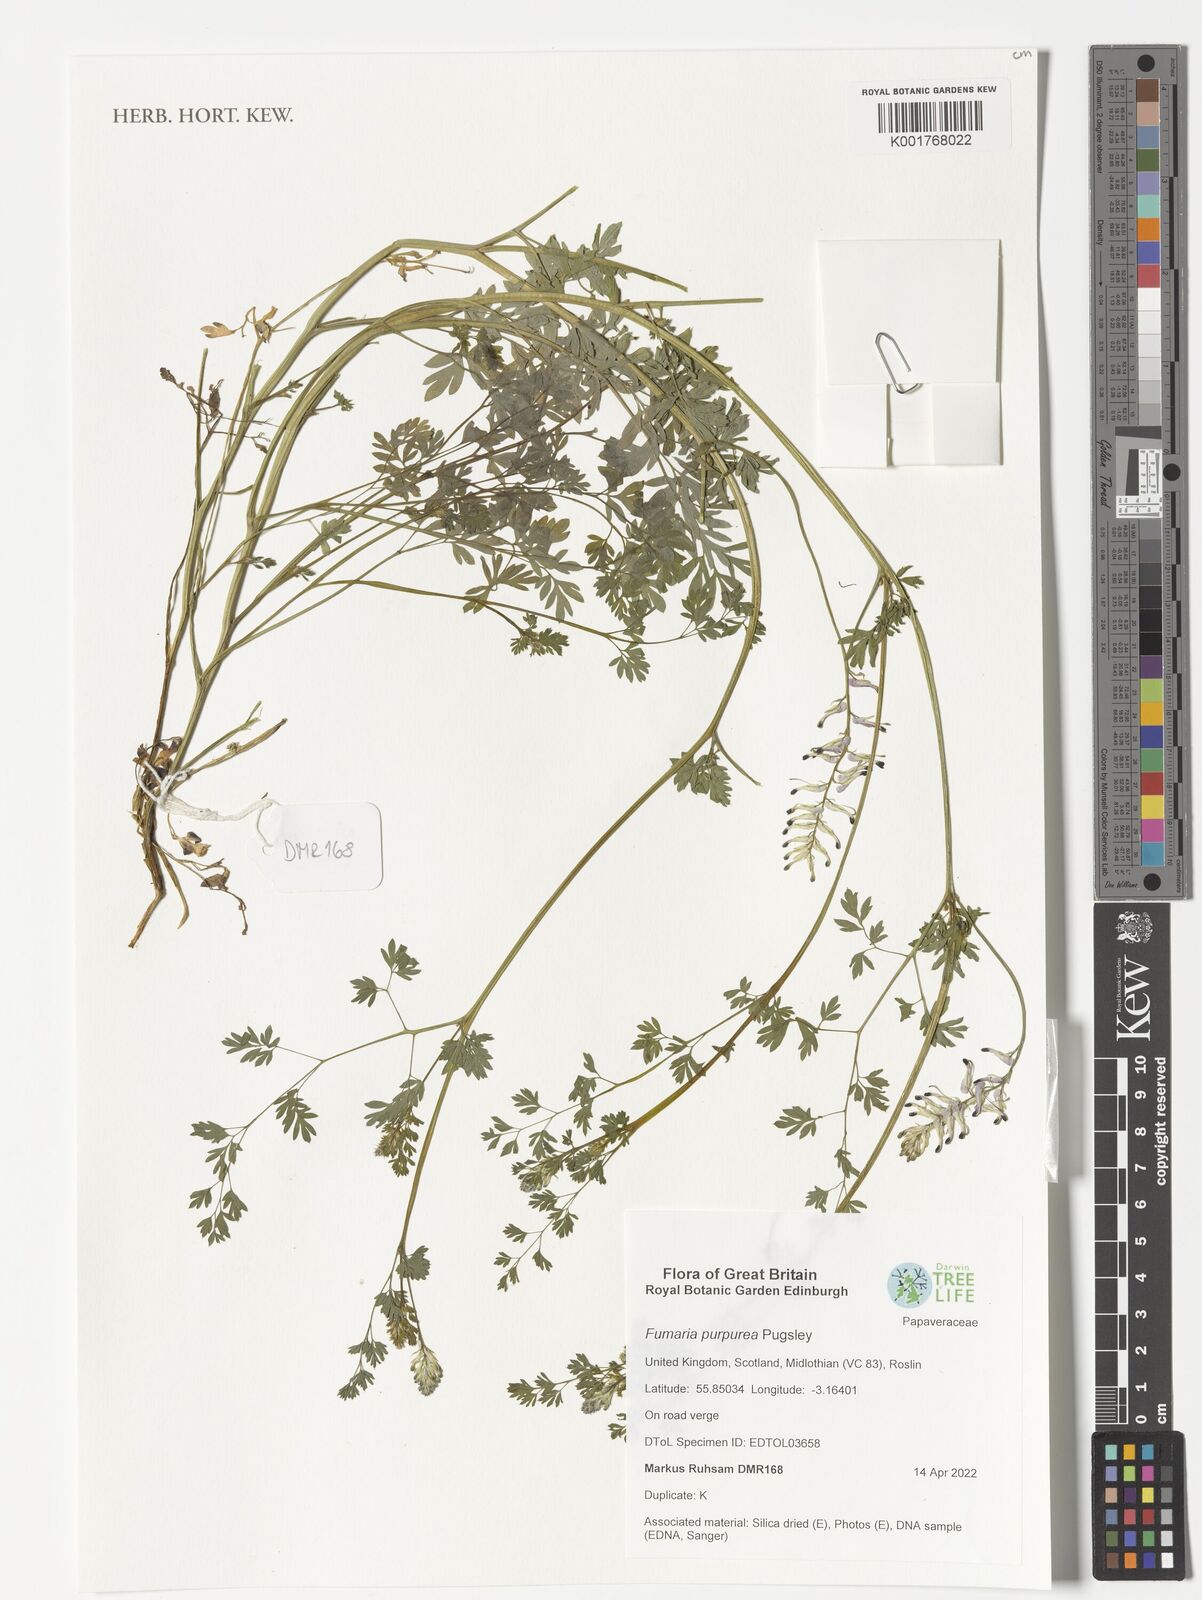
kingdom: Plantae
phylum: Tracheophyta
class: Magnoliopsida
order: Ranunculales
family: Papaveraceae
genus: Fumaria
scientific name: Fumaria purpurea
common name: Purple ramping-fumitory
